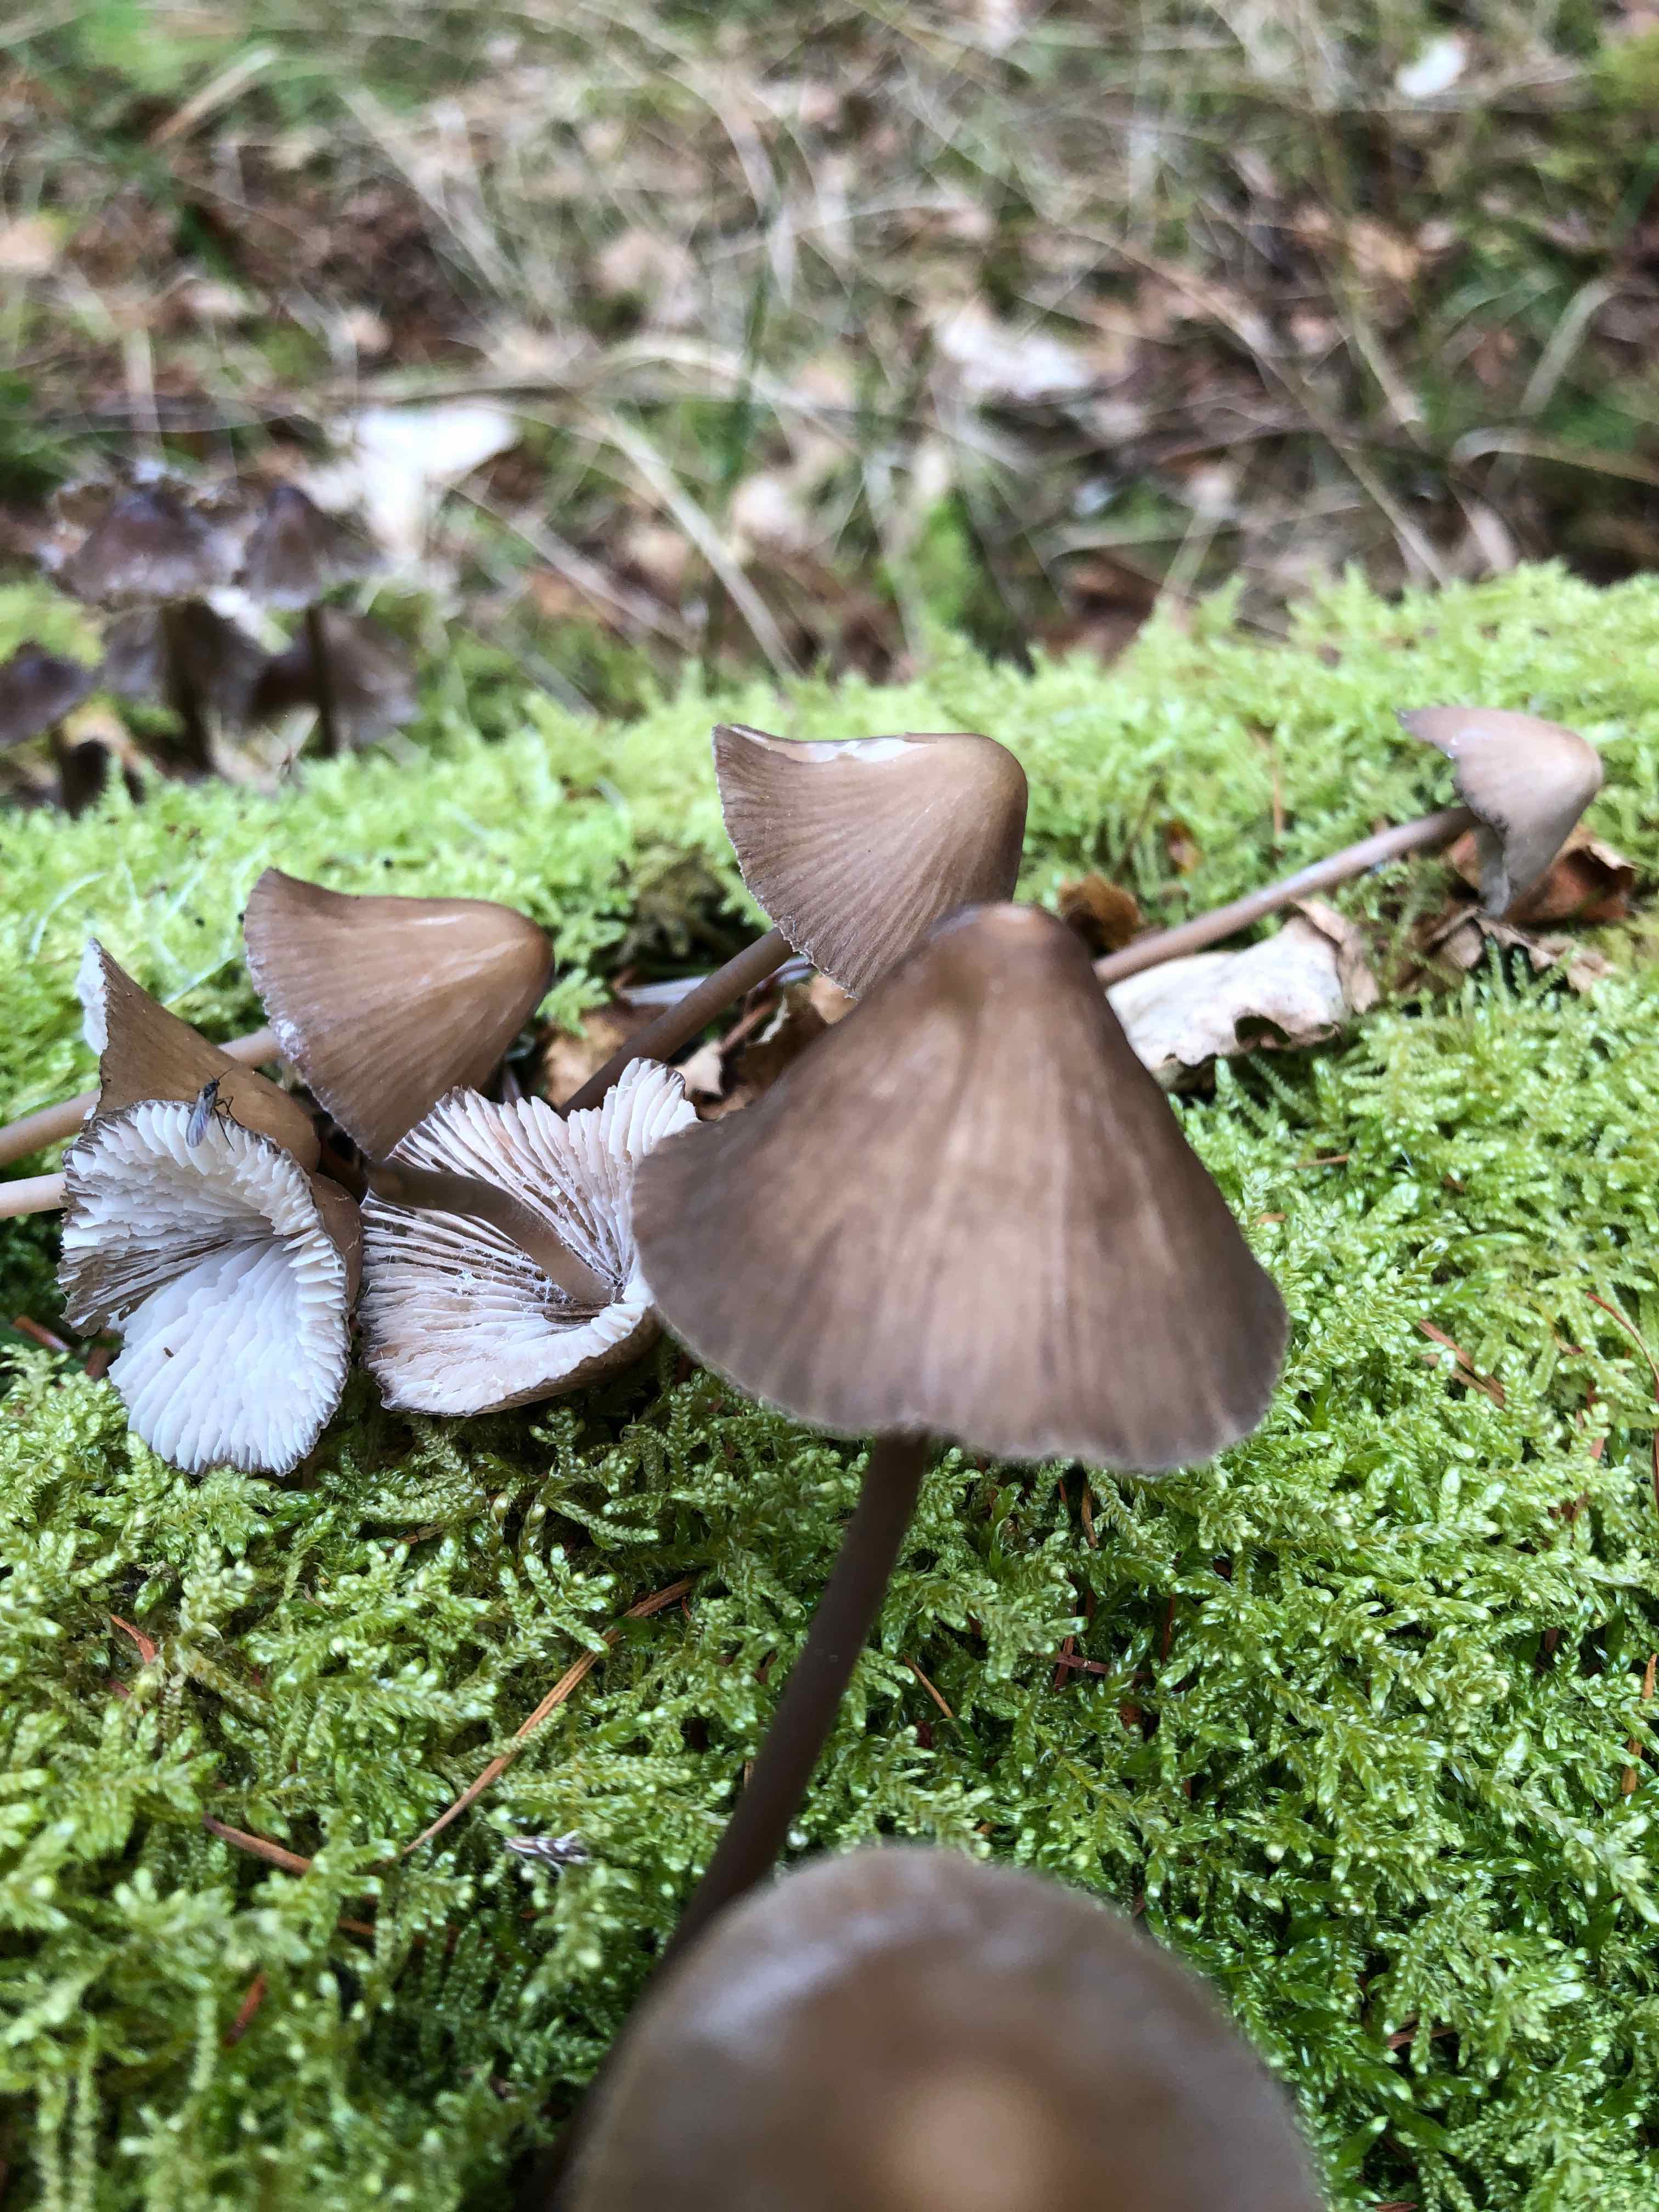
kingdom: Fungi
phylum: Basidiomycota
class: Agaricomycetes
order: Agaricales
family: Mycenaceae
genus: Mycena
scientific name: Mycena
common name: huesvamp
